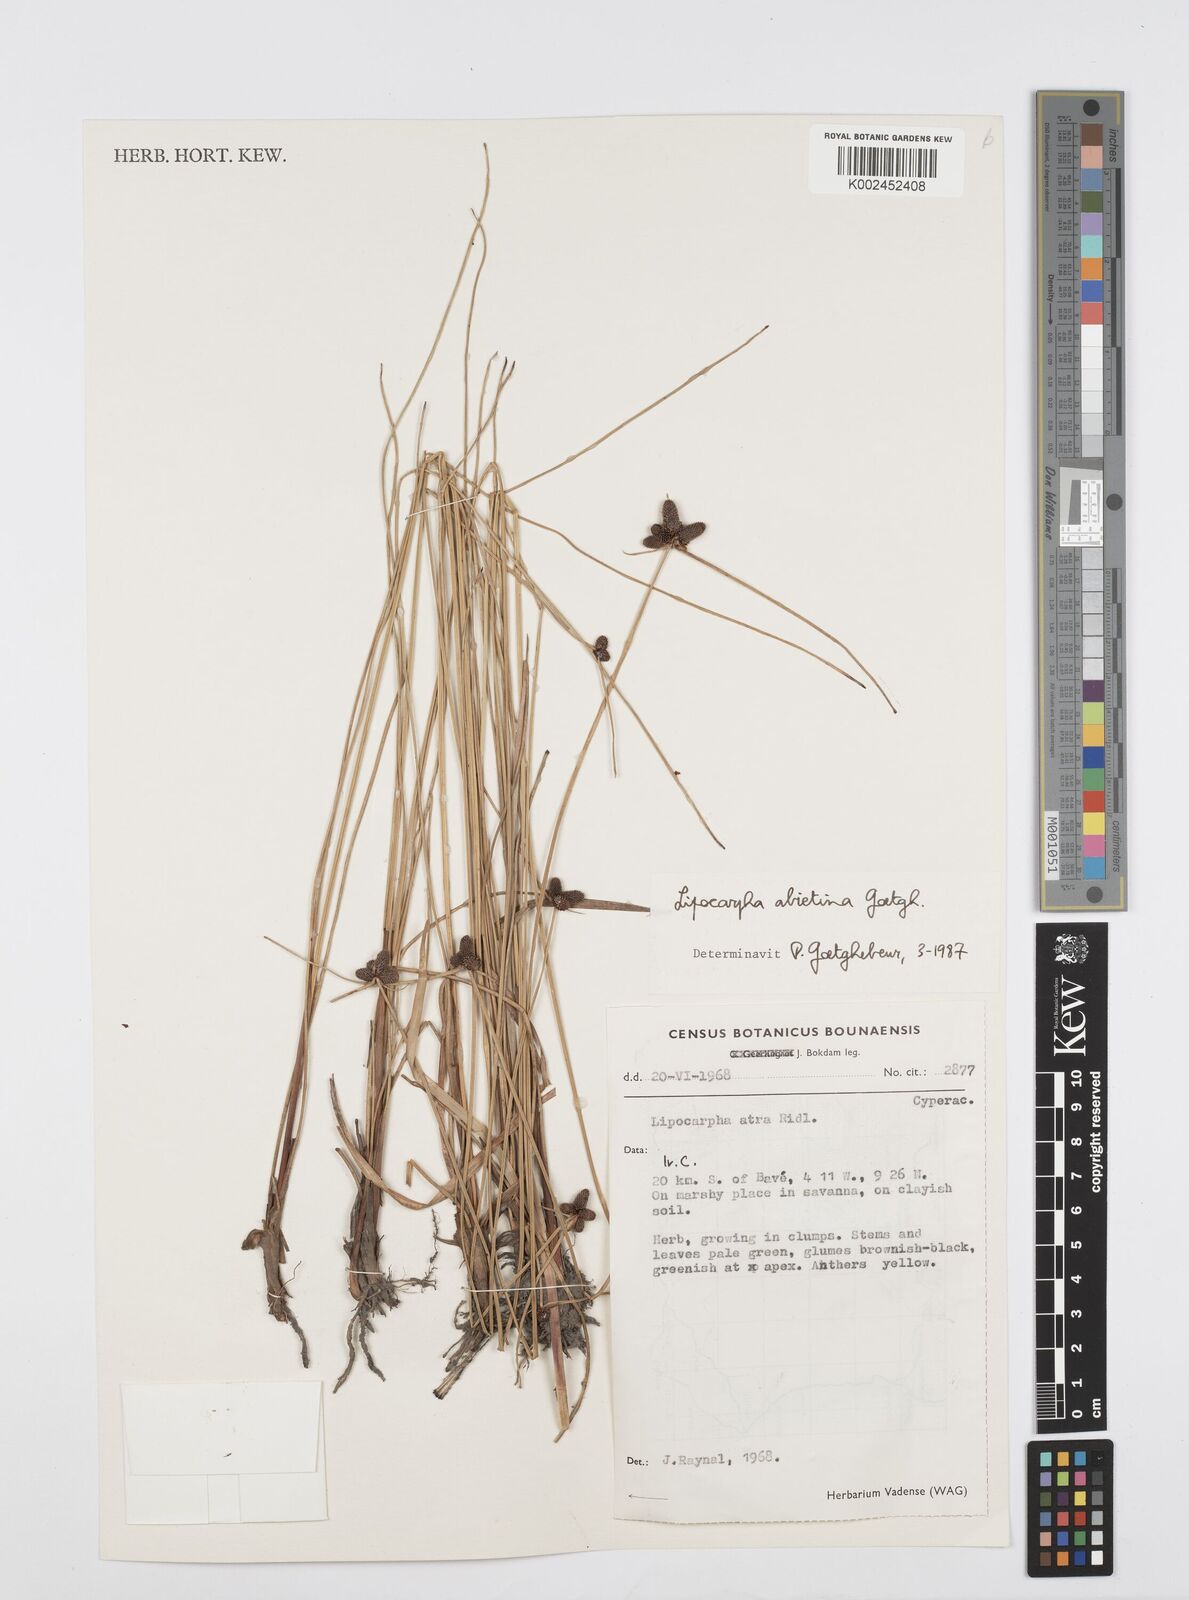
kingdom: Plantae
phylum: Tracheophyta
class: Liliopsida
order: Poales
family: Cyperaceae
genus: Cyperus
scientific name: Cyperus
